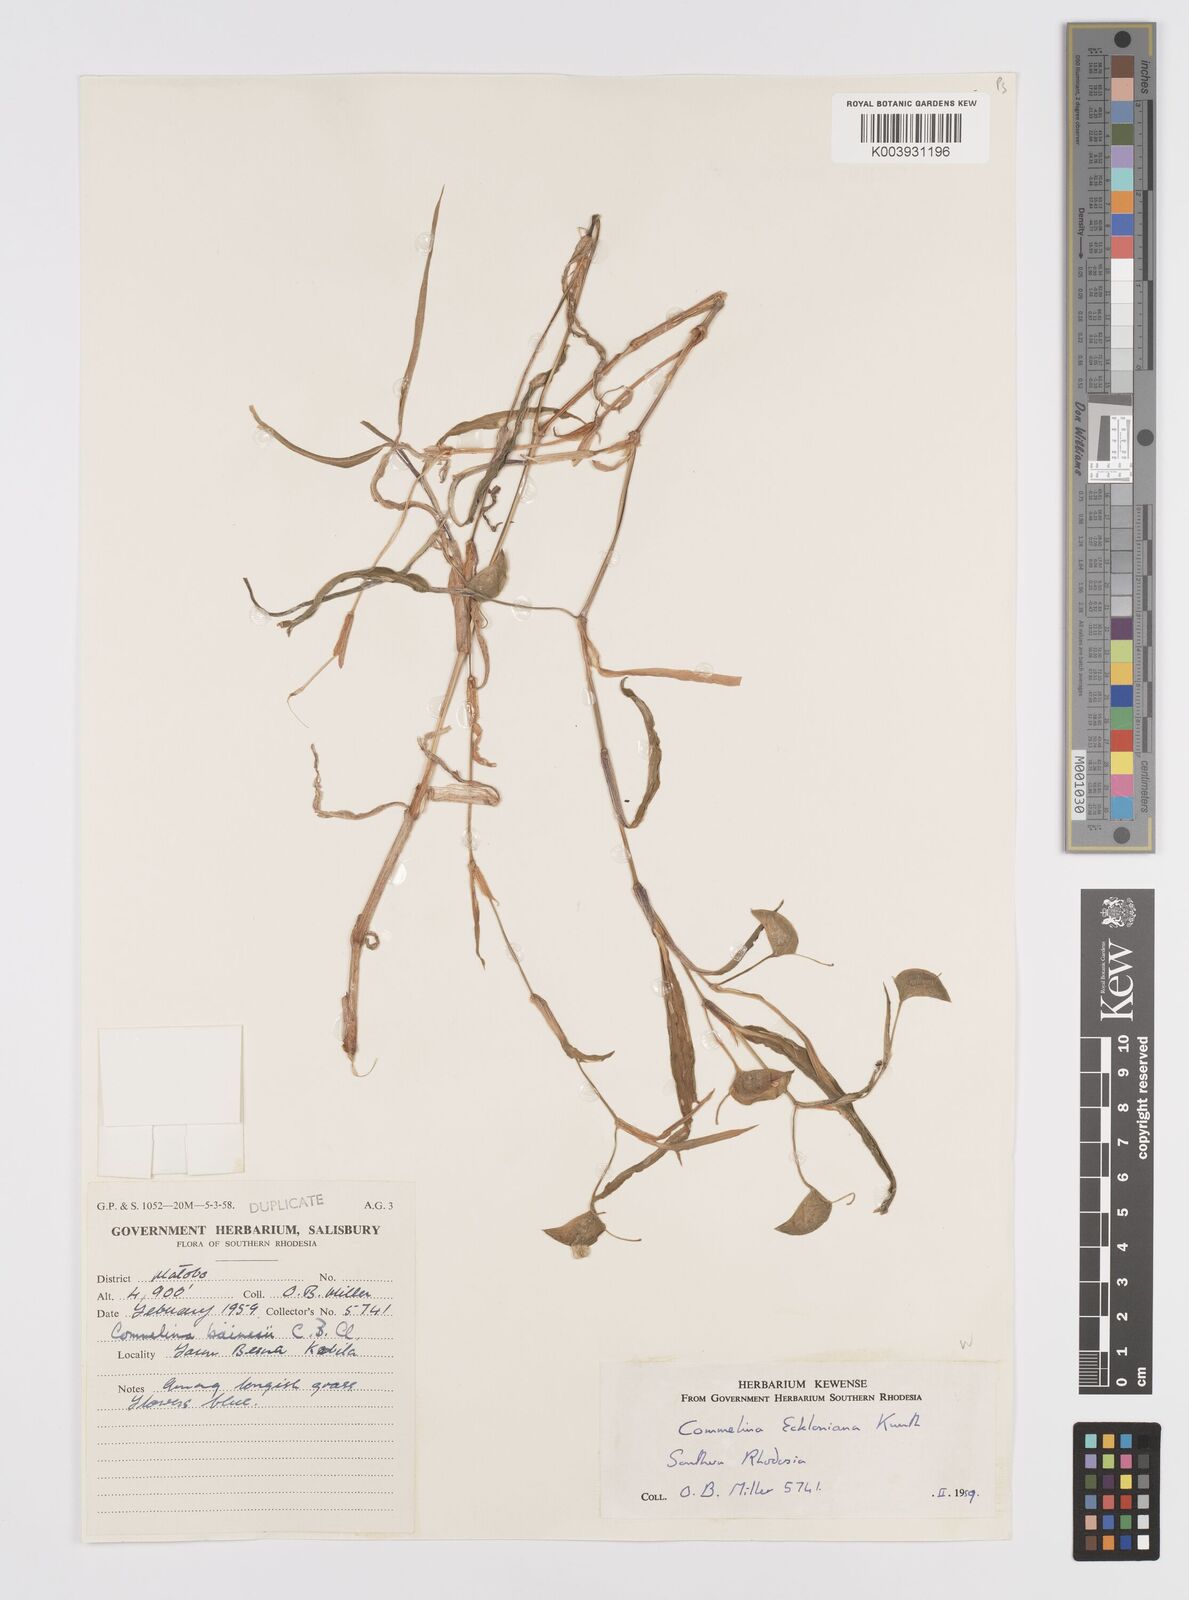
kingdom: Plantae
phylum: Tracheophyta
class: Liliopsida
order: Commelinales
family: Commelinaceae
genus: Commelina
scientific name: Commelina eckloniana
